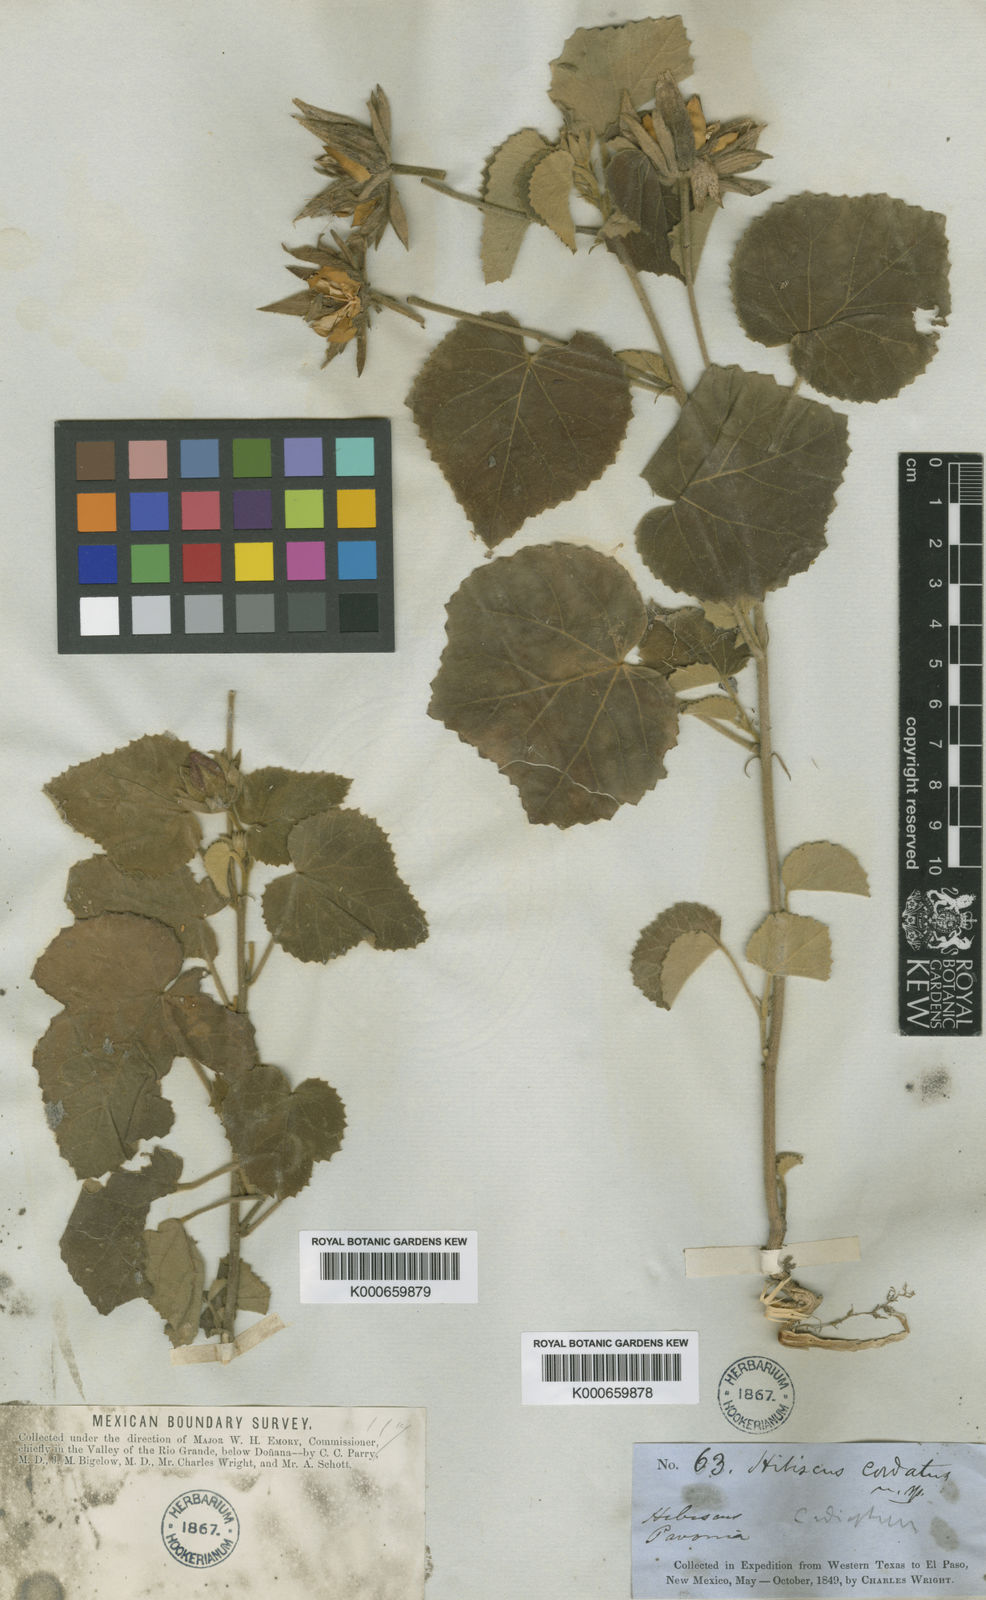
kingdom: Plantae
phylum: Tracheophyta
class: Magnoliopsida
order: Malvales
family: Malvaceae
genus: Hibiscus
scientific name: Hibiscus martianus
